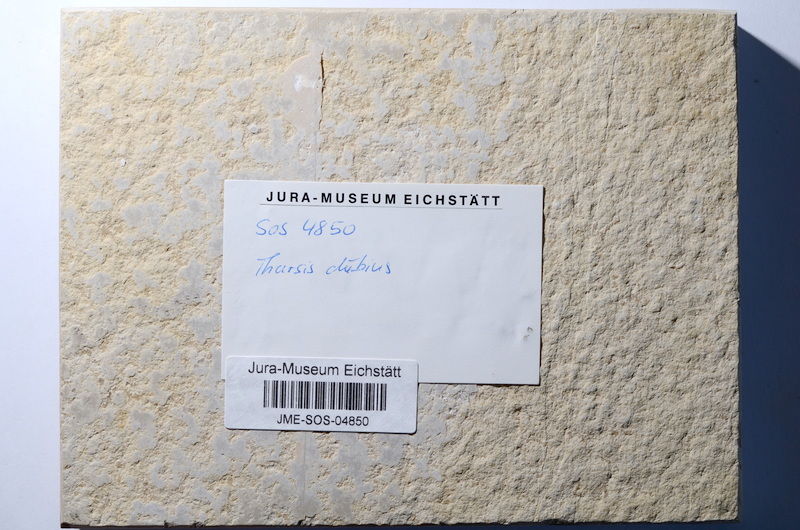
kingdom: Animalia
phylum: Chordata
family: Ascalaboidae
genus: Tharsis
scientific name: Tharsis dubius
